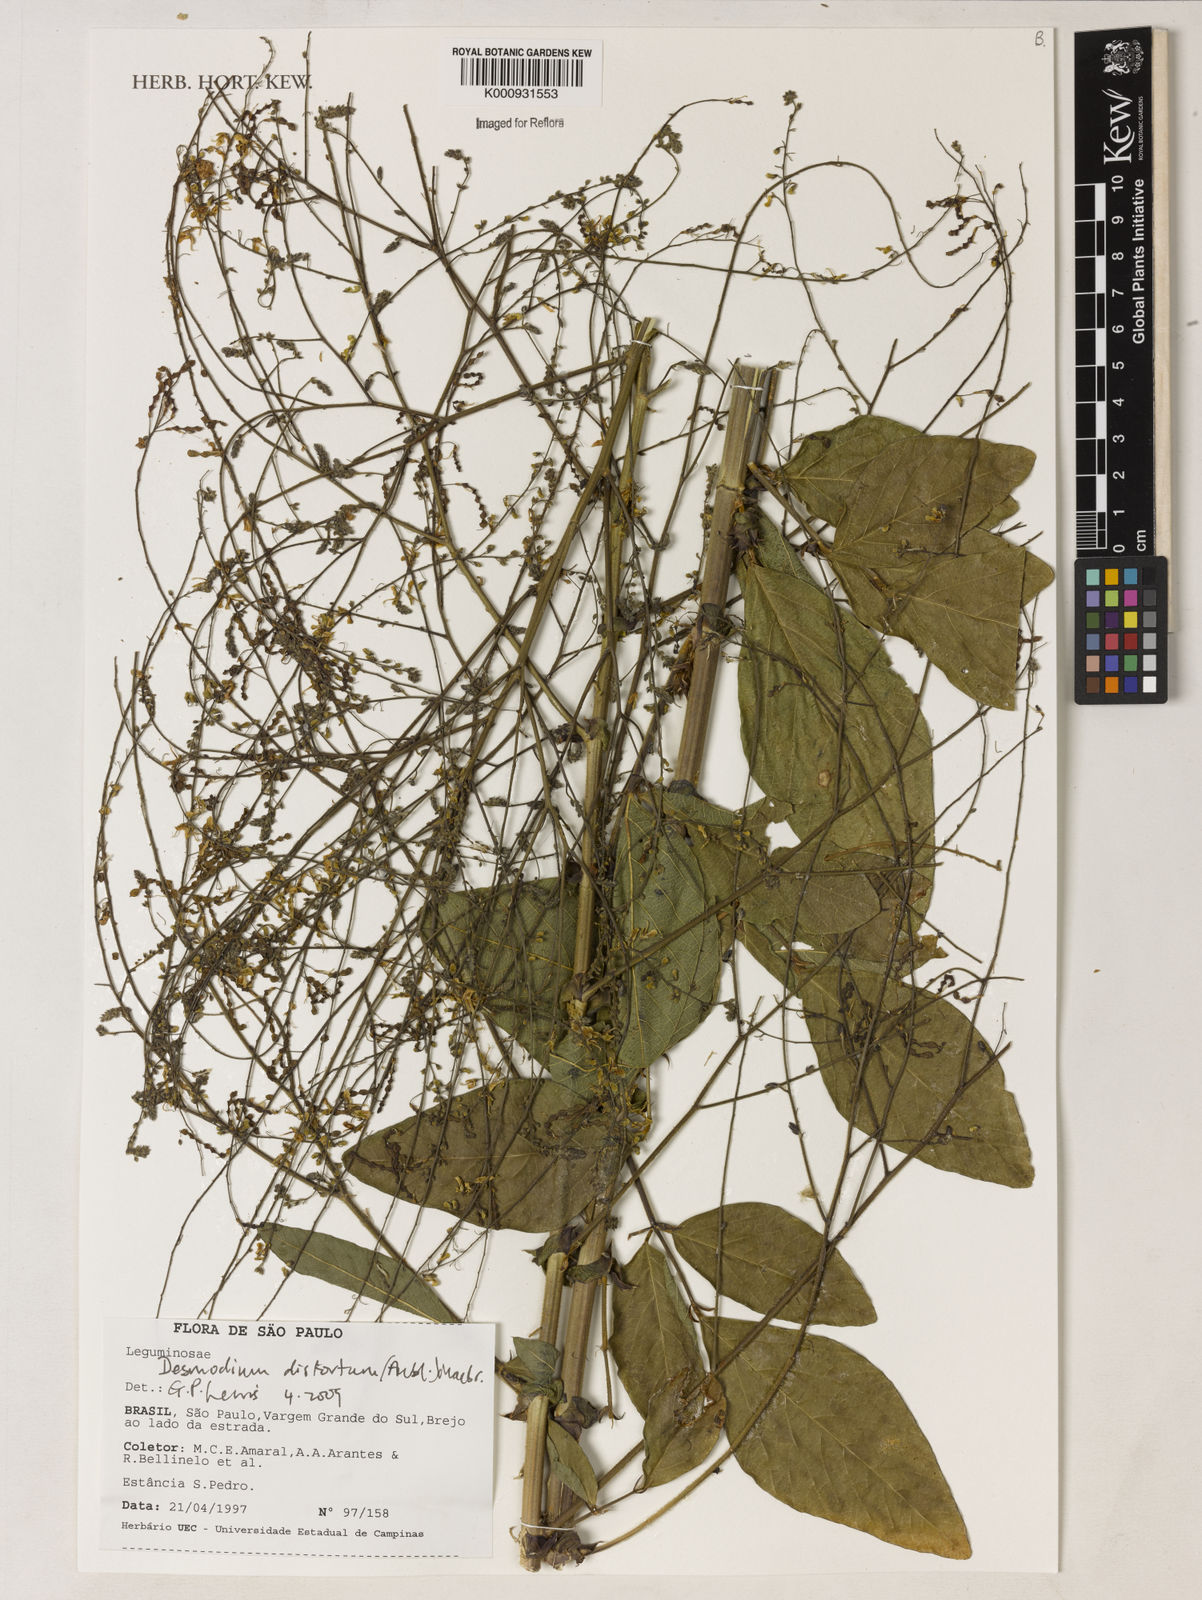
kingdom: Plantae
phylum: Tracheophyta
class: Magnoliopsida
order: Fabales
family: Fabaceae
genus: Desmodium
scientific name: Desmodium
